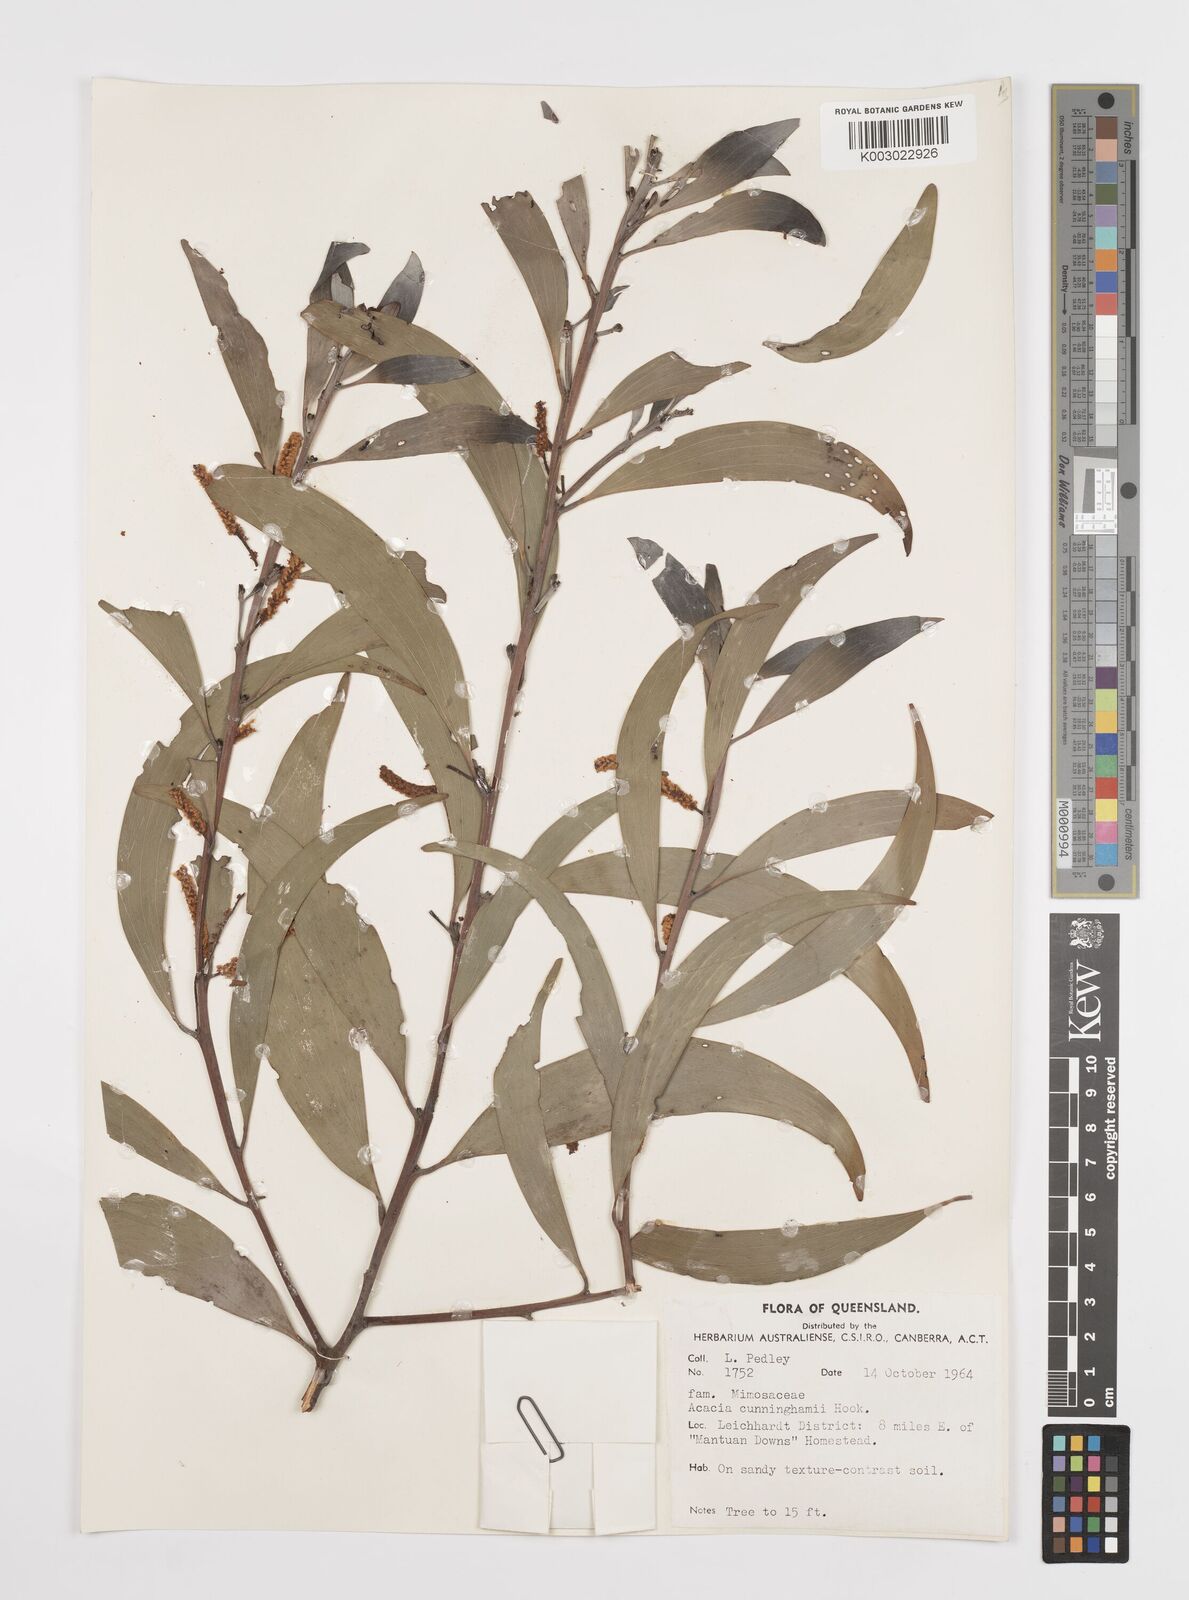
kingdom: Plantae
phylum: Tracheophyta
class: Magnoliopsida
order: Fabales
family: Fabaceae
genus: Acacia
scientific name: Acacia longispicata
